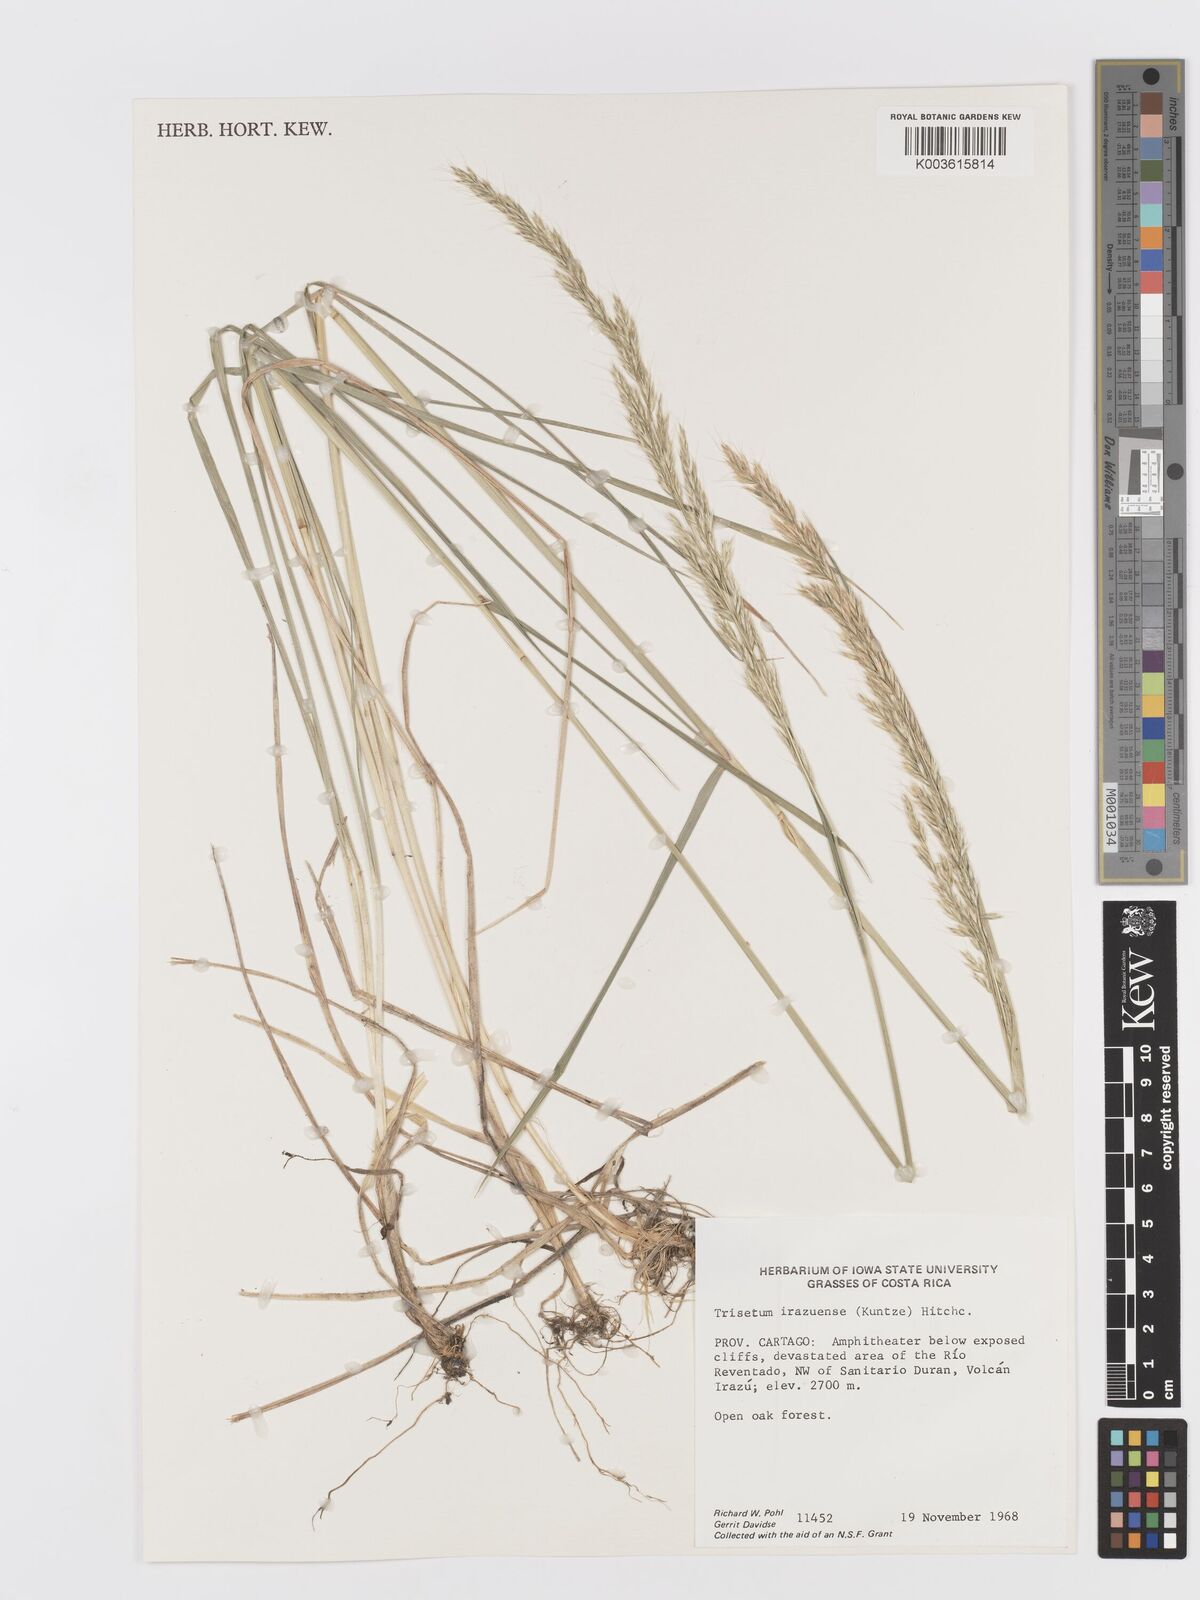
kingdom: Plantae
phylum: Tracheophyta
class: Liliopsida
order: Poales
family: Poaceae
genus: Peyritschia
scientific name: Peyritschia irazuensis
